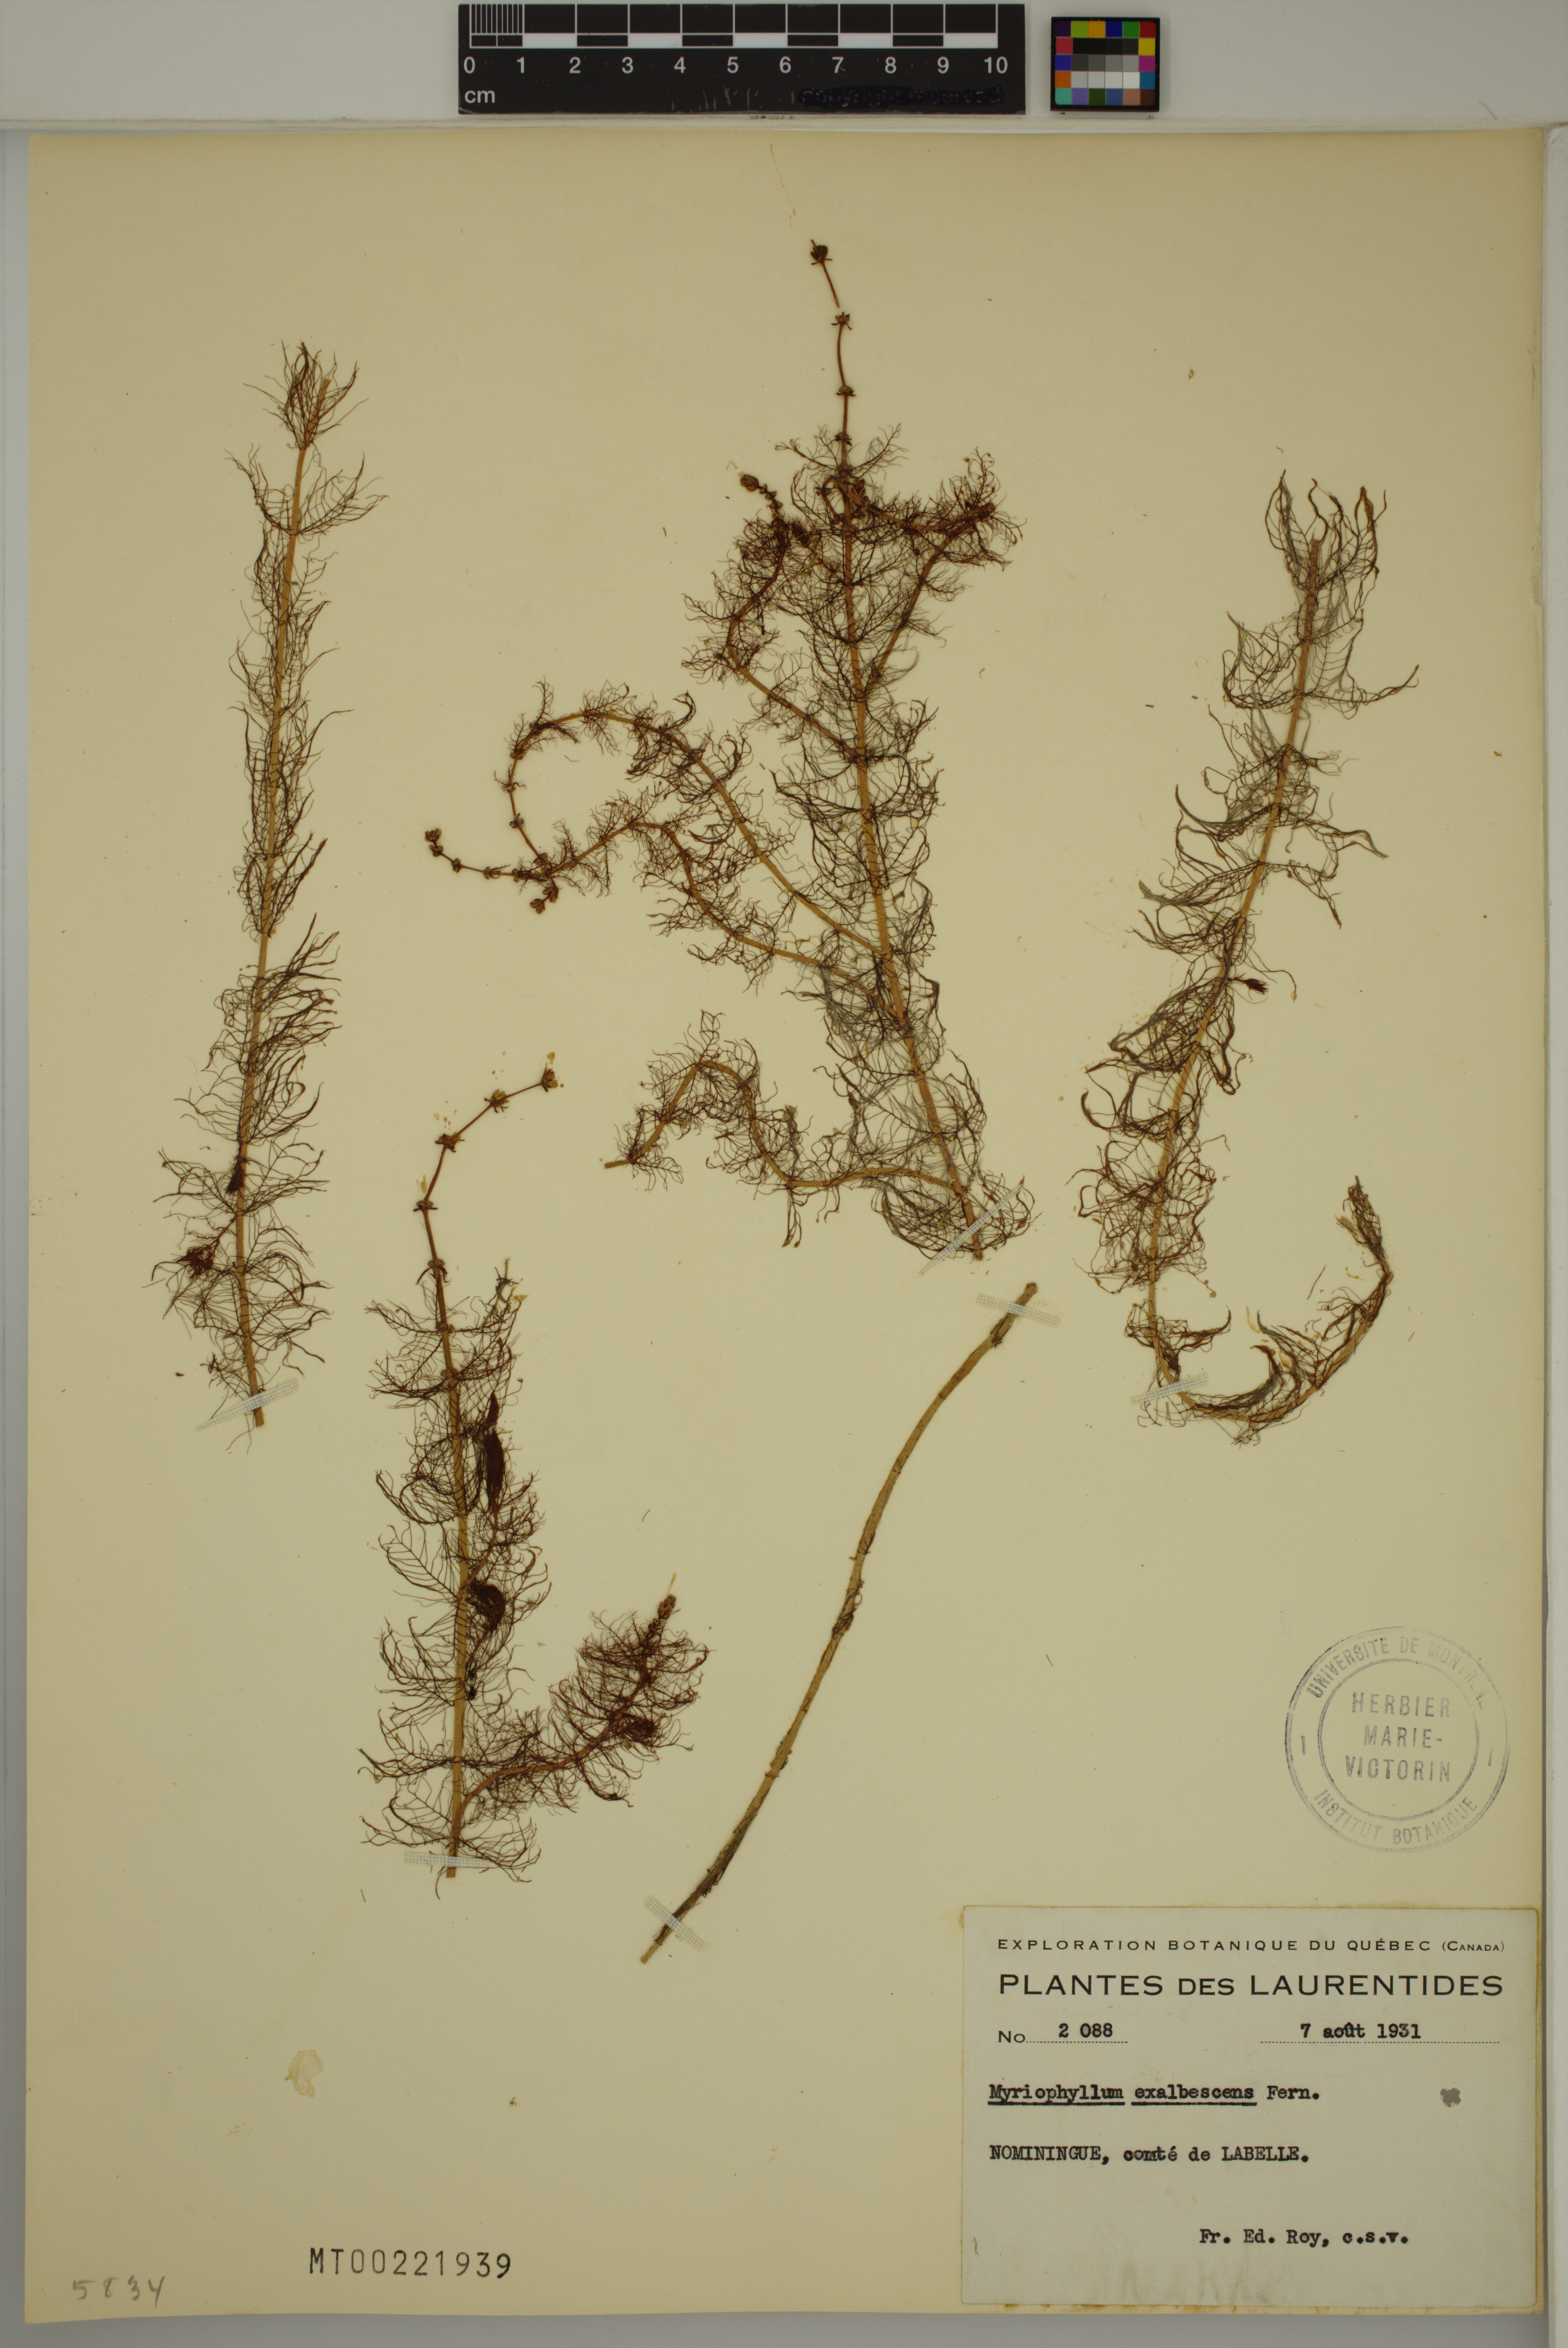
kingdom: Plantae
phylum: Tracheophyta
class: Magnoliopsida
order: Saxifragales
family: Haloragaceae
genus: Myriophyllum
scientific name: Myriophyllum sibiricum
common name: Siberian water-milfoil
